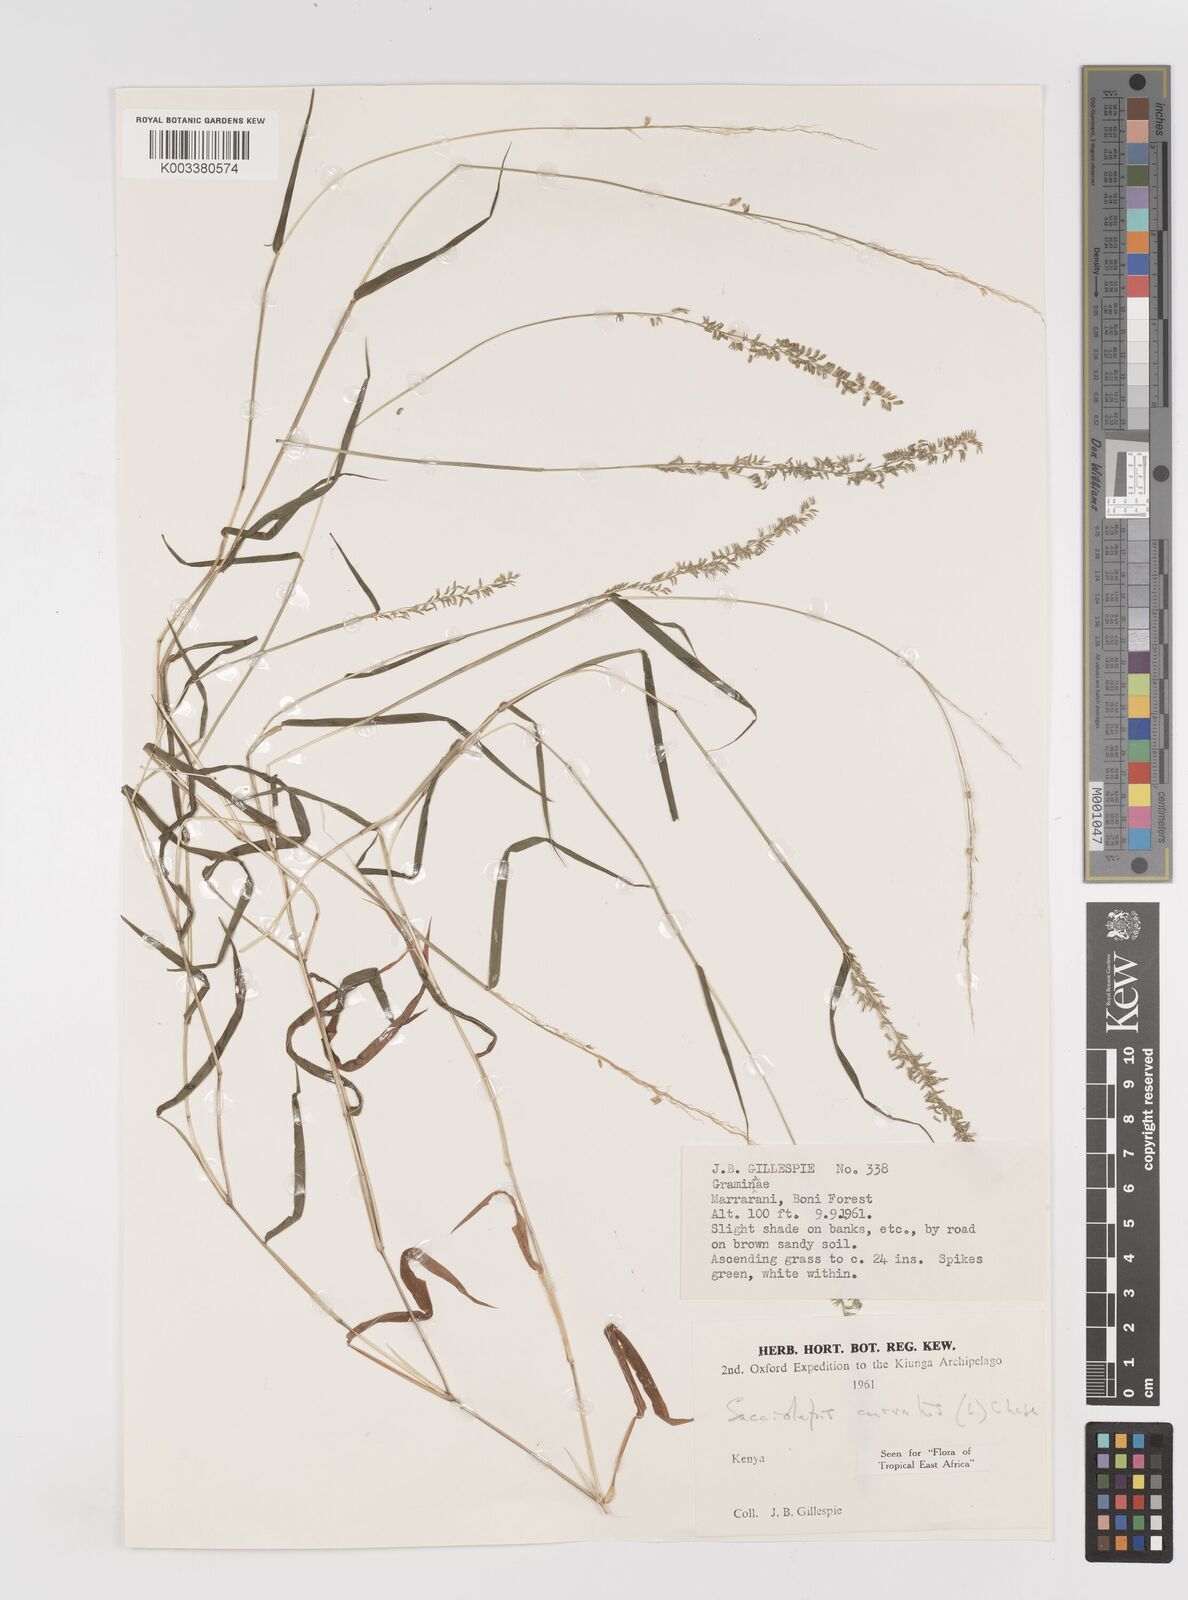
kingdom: Plantae
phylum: Tracheophyta
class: Liliopsida
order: Poales
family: Poaceae
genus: Sacciolepis
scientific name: Sacciolepis curvata
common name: Forest hood grass
